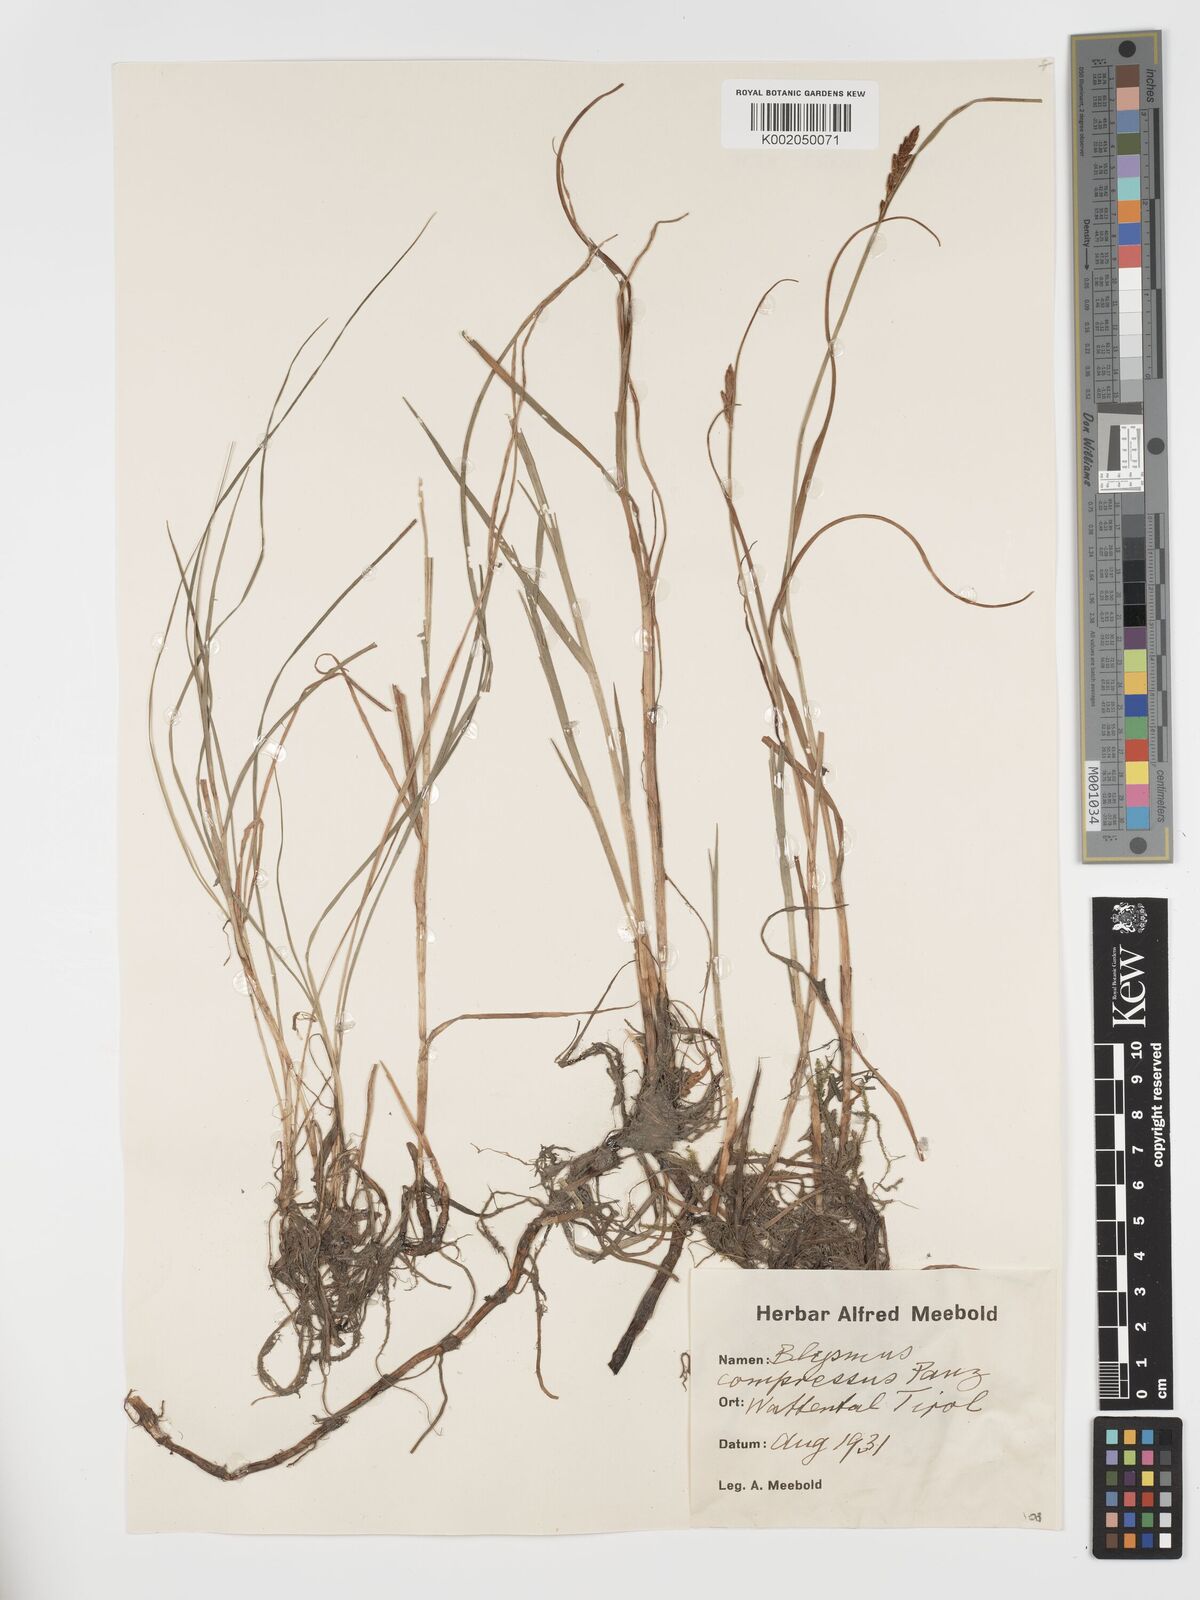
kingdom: Plantae
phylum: Tracheophyta
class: Liliopsida
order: Poales
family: Cyperaceae
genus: Blysmus
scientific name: Blysmus compressus
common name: Flat-sedge
